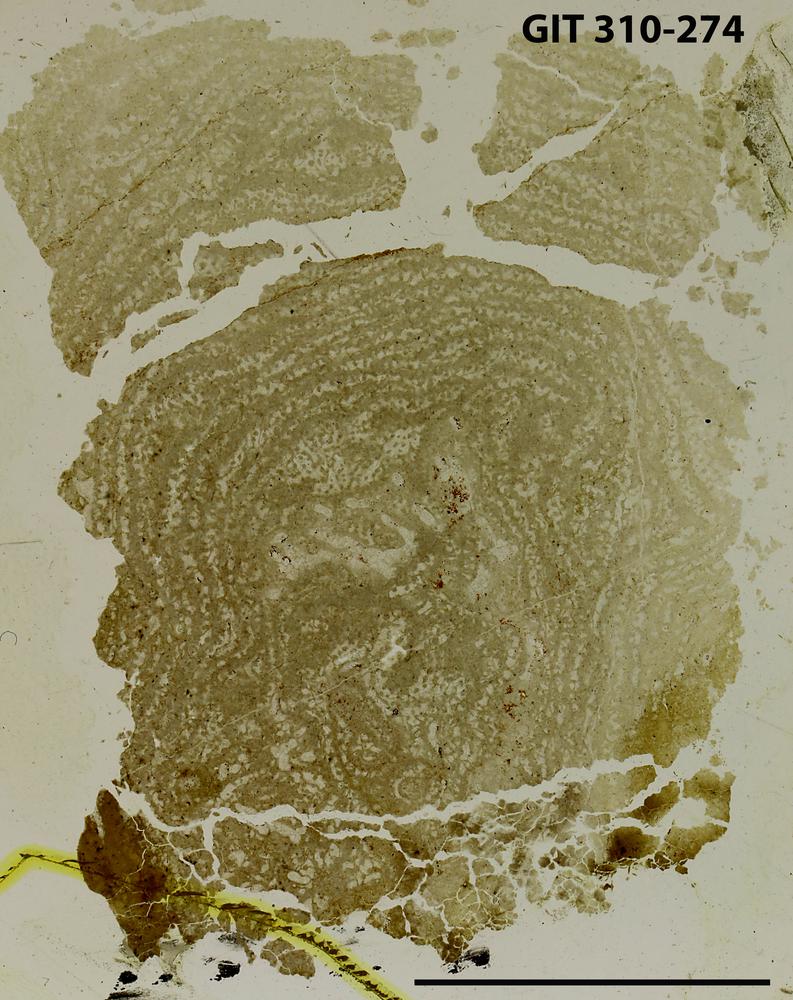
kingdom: Animalia
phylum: Porifera
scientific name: Porifera
